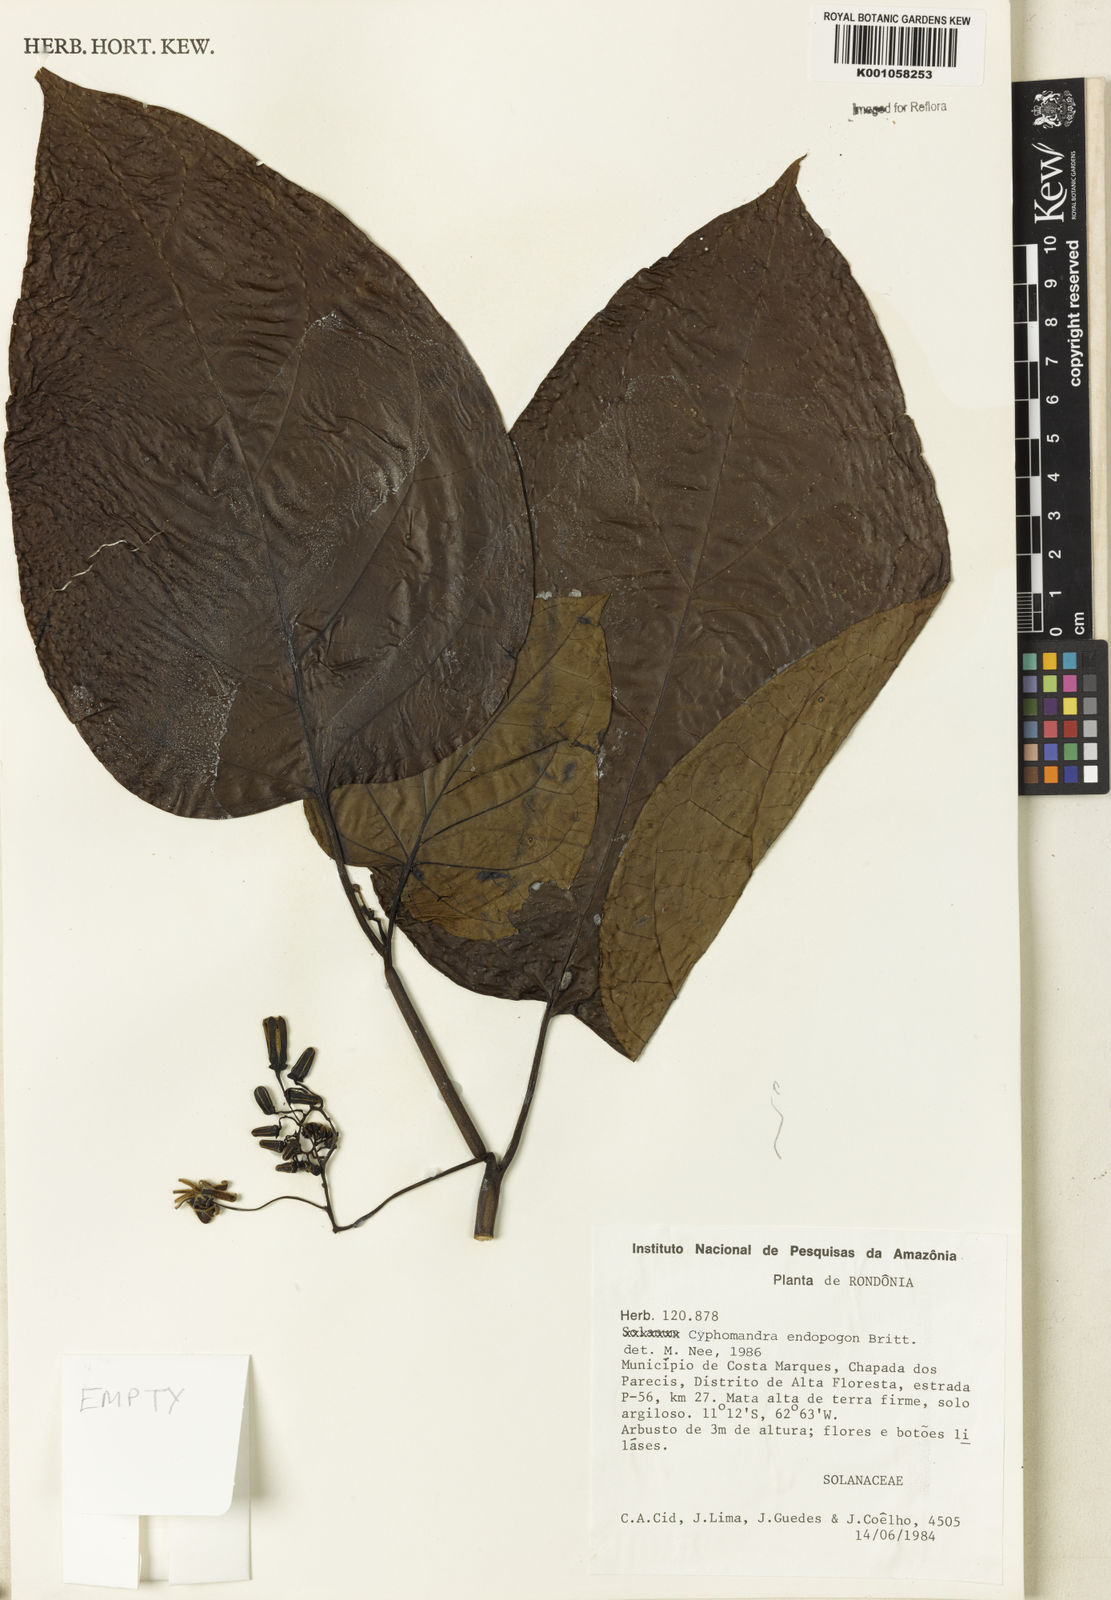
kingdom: Plantae
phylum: Tracheophyta
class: Magnoliopsida
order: Solanales
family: Solanaceae
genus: Solanum
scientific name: Solanum endopogon
